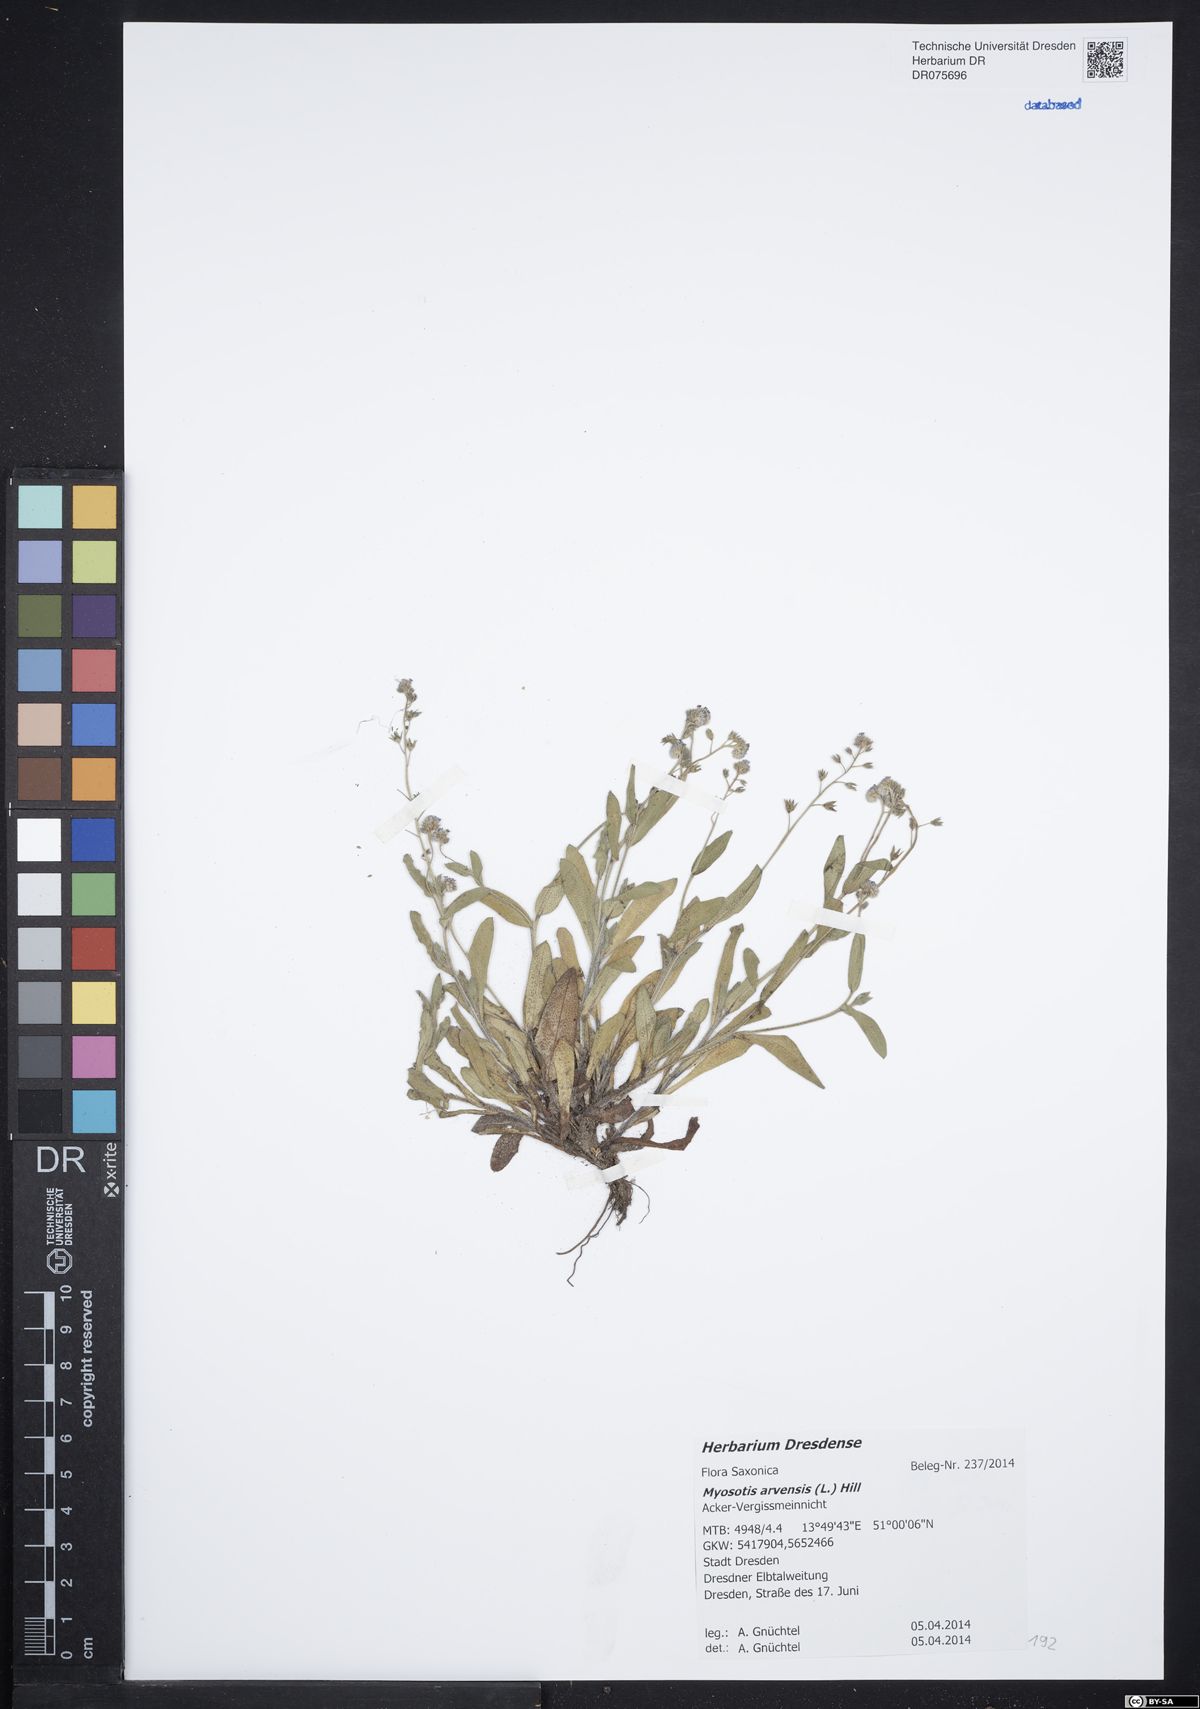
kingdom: Plantae
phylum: Tracheophyta
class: Magnoliopsida
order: Boraginales
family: Boraginaceae
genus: Myosotis
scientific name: Myosotis arvensis
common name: Field forget-me-not
